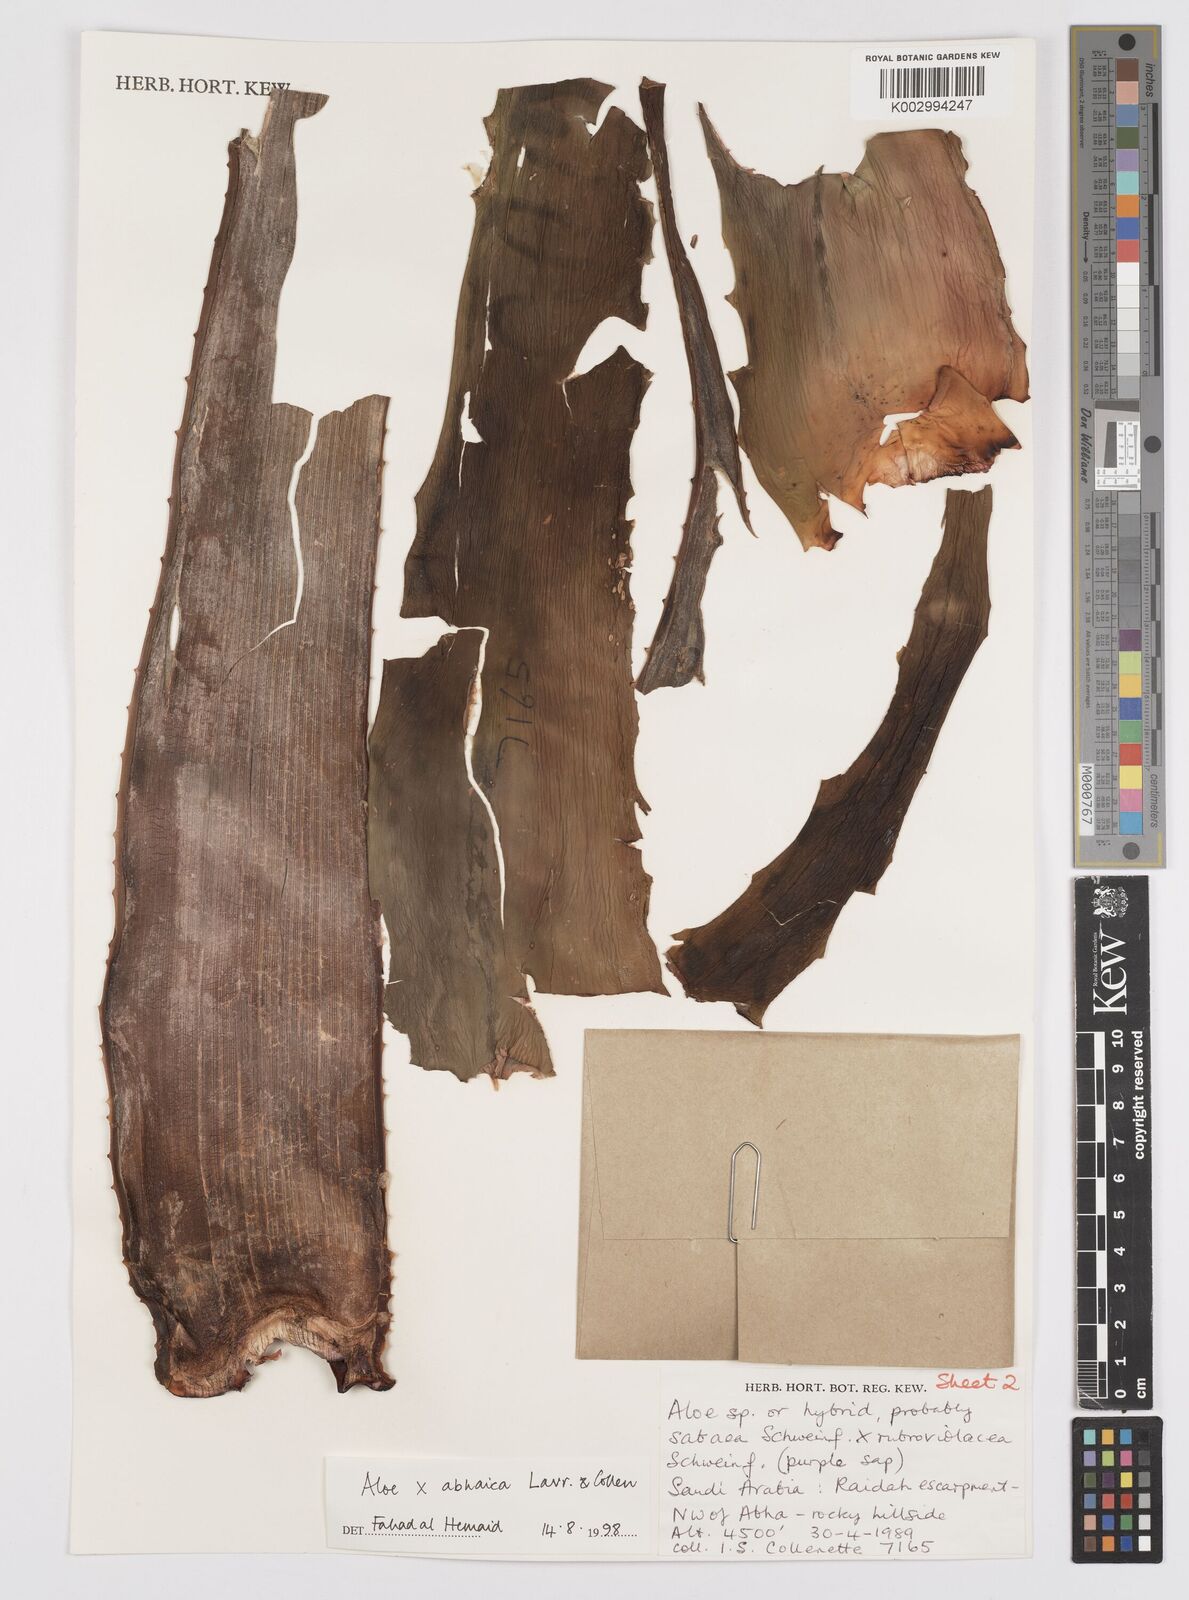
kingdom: Plantae
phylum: Tracheophyta
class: Liliopsida
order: Asparagales
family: Asphodelaceae
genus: Aloe
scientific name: Aloe
